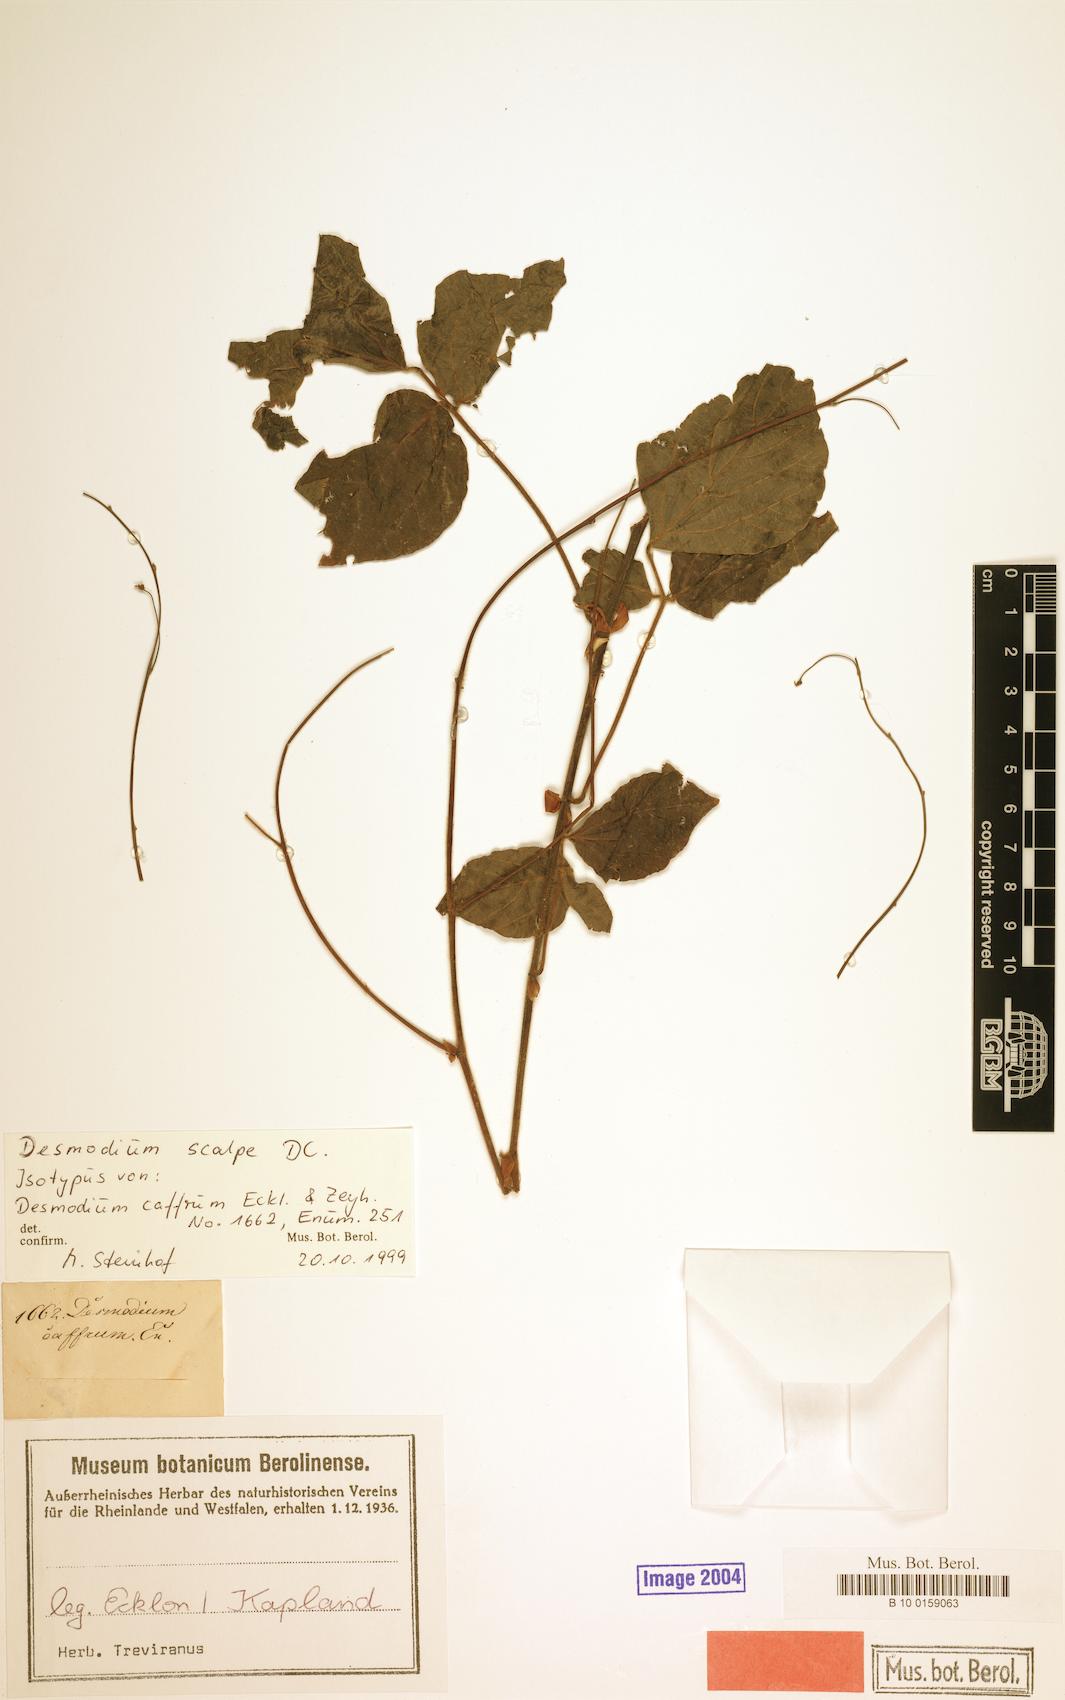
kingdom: Plantae
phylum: Tracheophyta
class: Magnoliopsida
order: Fabales
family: Fabaceae
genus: Hylodesmum
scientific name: Hylodesmum repandum
